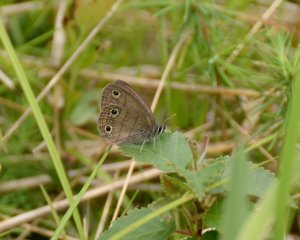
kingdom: Animalia
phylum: Arthropoda
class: Insecta
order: Lepidoptera
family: Nymphalidae
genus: Euptychia
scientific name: Euptychia cymela
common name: Little Wood Satyr
